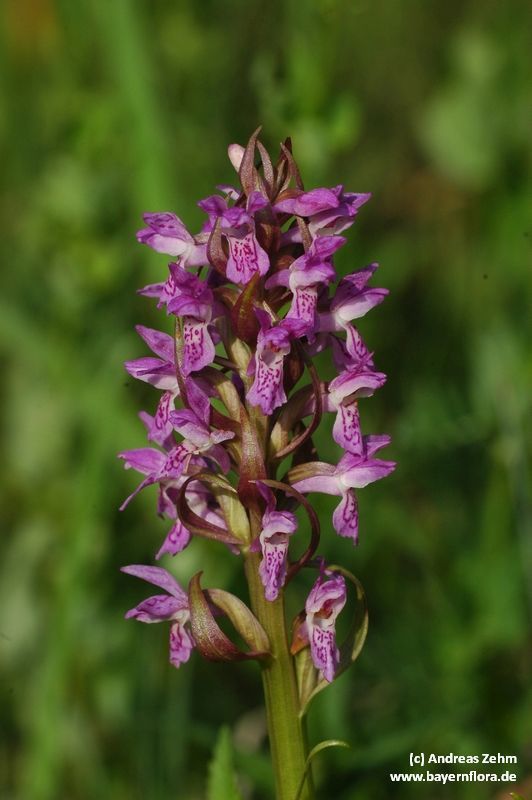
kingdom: Plantae
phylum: Tracheophyta
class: Liliopsida
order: Asparagales
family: Orchidaceae
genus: Dactylorhiza
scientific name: Dactylorhiza incarnata
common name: Early marsh-orchid
